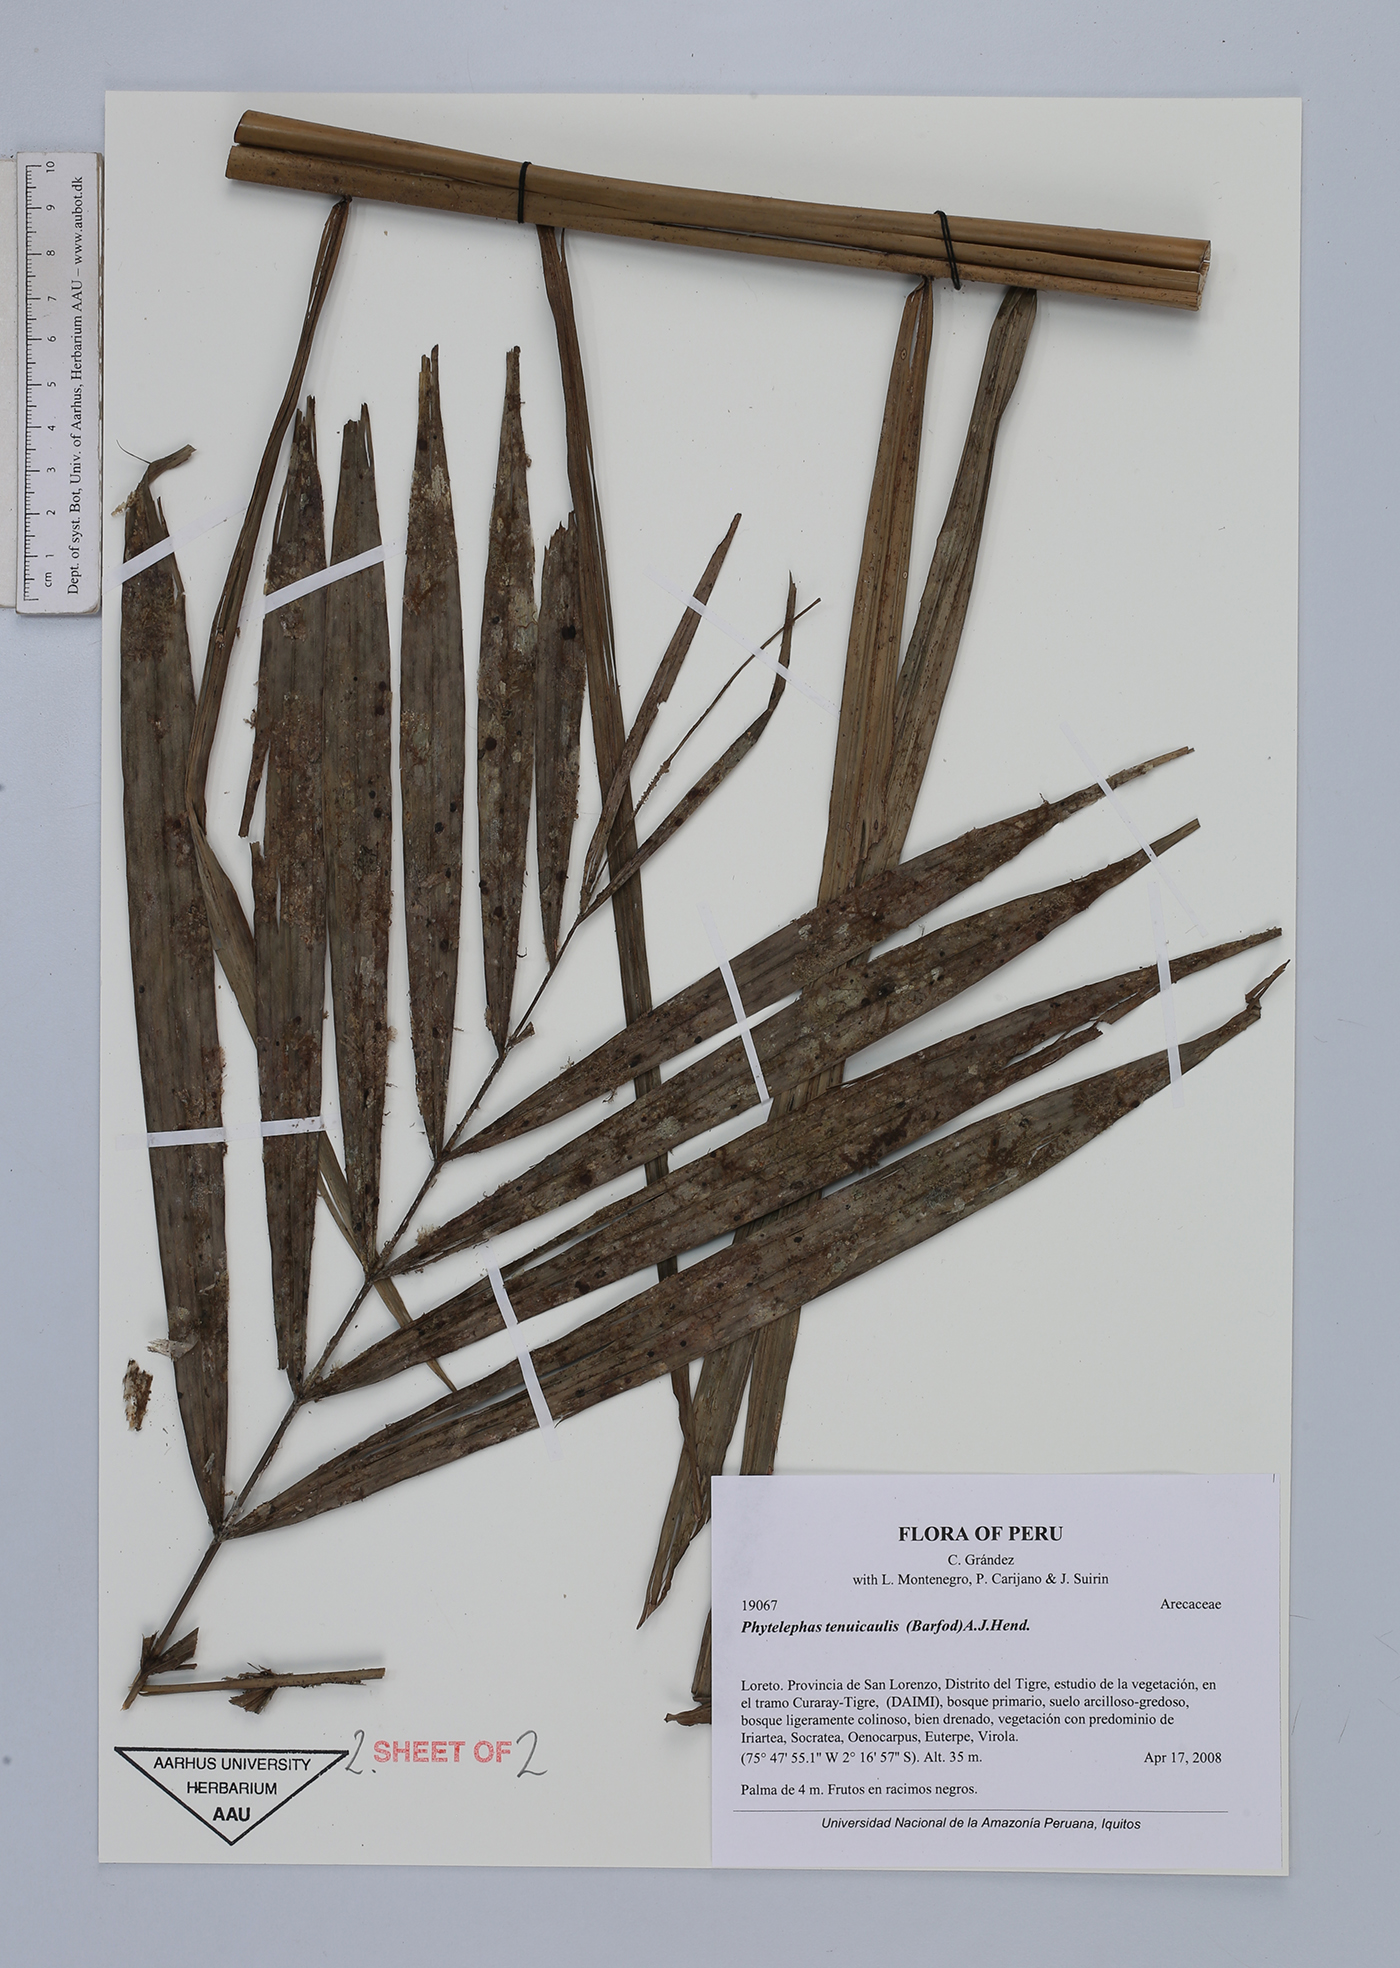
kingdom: Plantae
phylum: Tracheophyta
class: Liliopsida
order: Arecales
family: Arecaceae
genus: Phytelephas
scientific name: Phytelephas tenuicaulis
